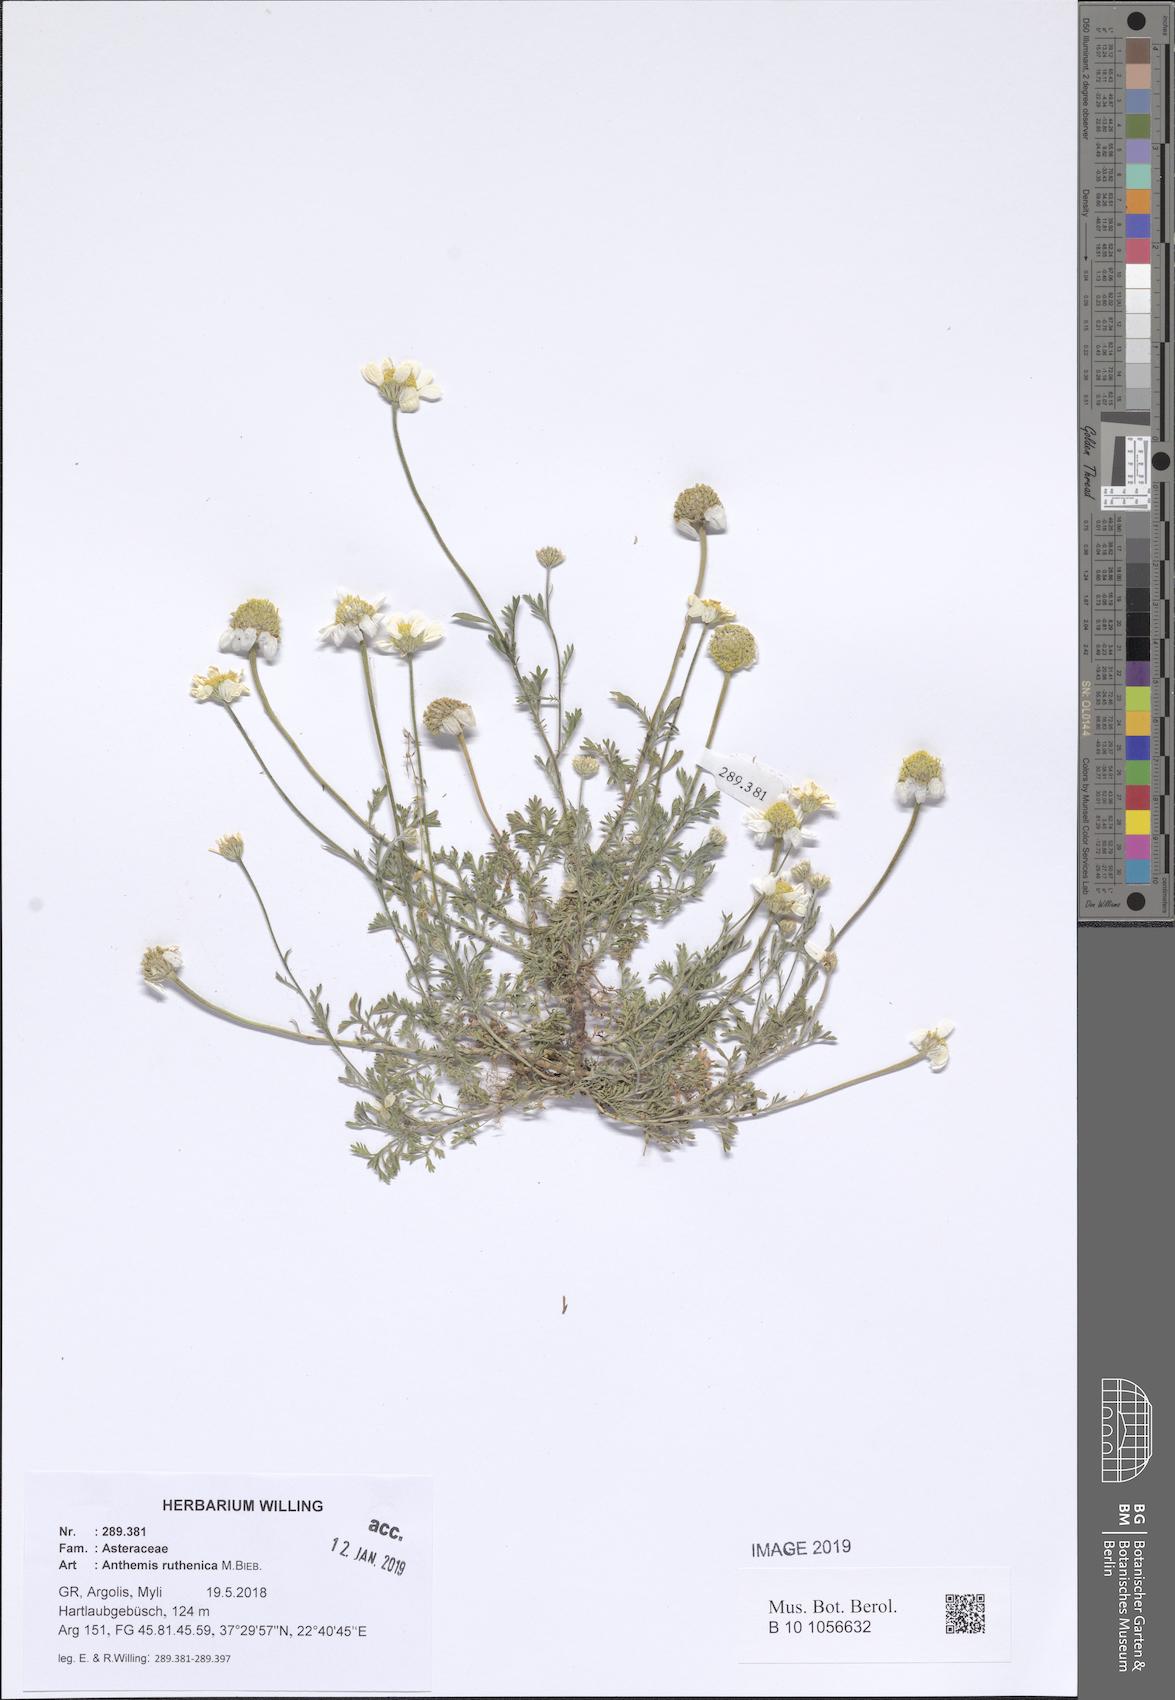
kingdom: Plantae
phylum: Tracheophyta
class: Magnoliopsida
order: Asterales
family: Asteraceae
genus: Anthemis
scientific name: Anthemis ruthenica
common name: Eastern chamomile
